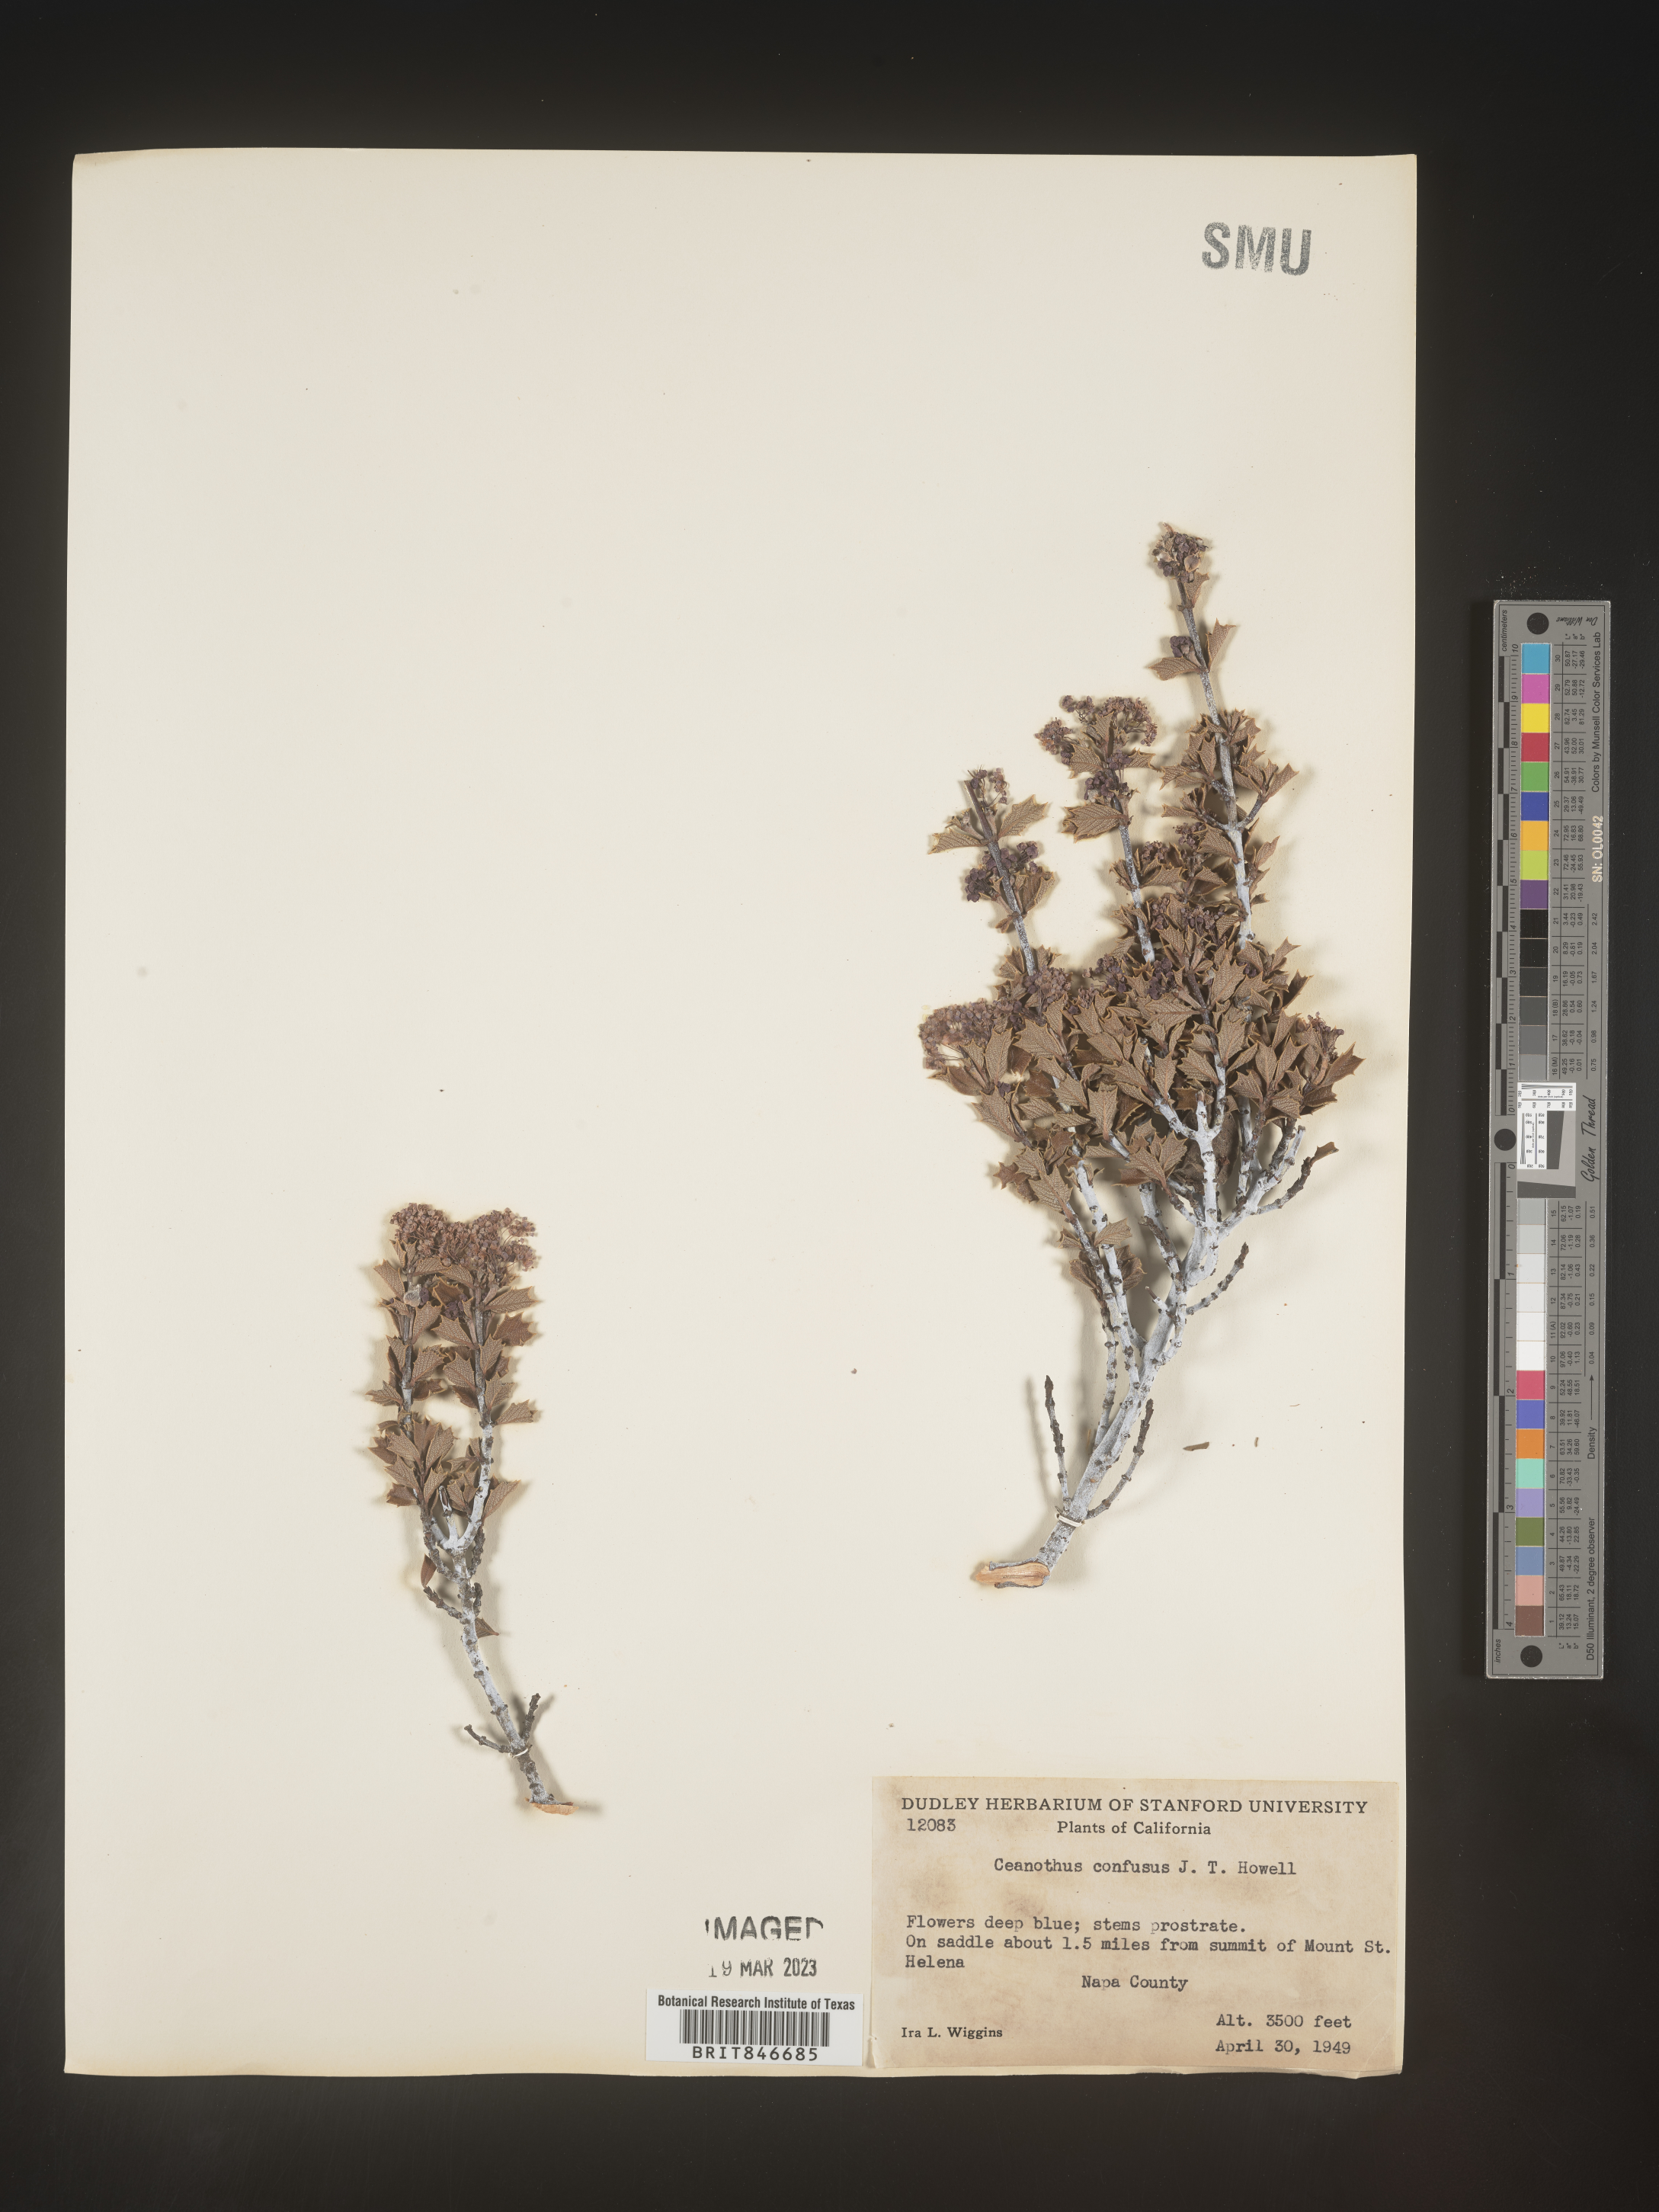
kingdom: Plantae
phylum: Tracheophyta
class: Magnoliopsida
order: Rosales
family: Rhamnaceae
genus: Ceanothus
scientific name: Ceanothus
